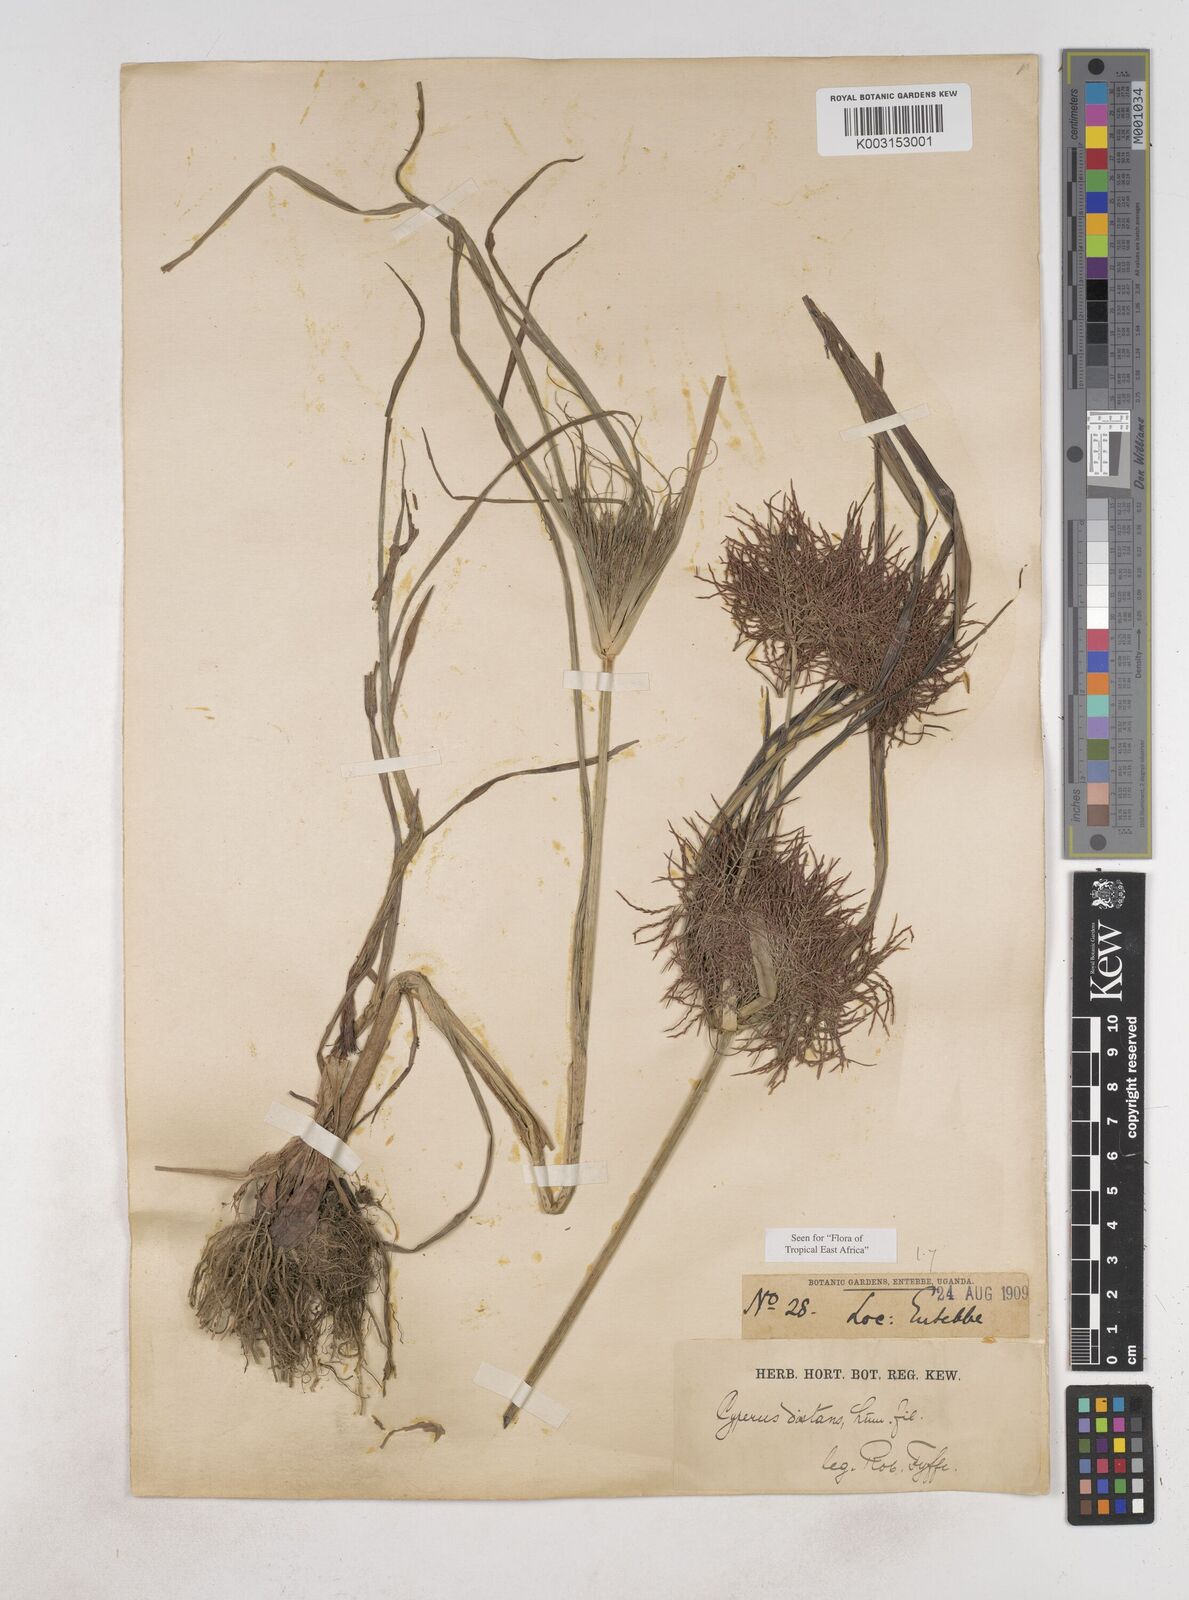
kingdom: Plantae
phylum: Tracheophyta
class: Liliopsida
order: Poales
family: Cyperaceae
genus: Cyperus
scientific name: Cyperus distans
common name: Slender cyperus
